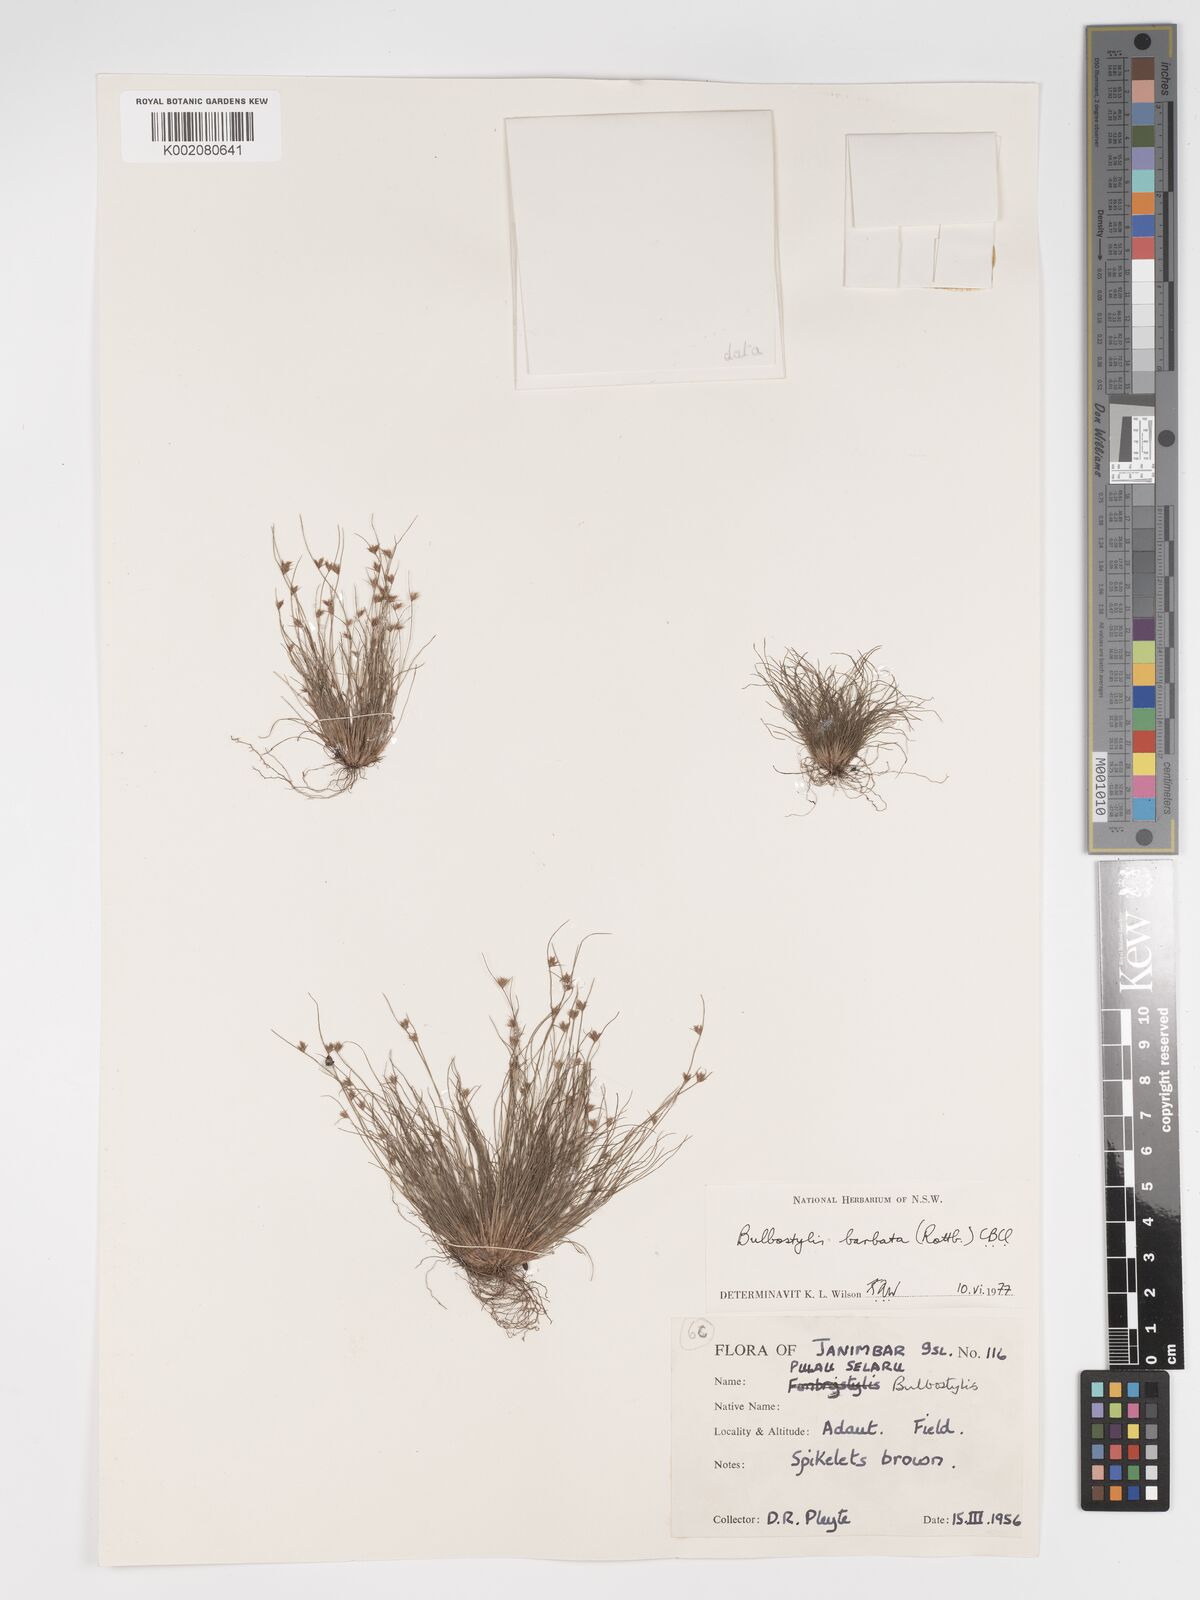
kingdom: Plantae
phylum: Tracheophyta
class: Liliopsida
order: Poales
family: Cyperaceae
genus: Bulbostylis
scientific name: Bulbostylis barbata
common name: Watergrass
